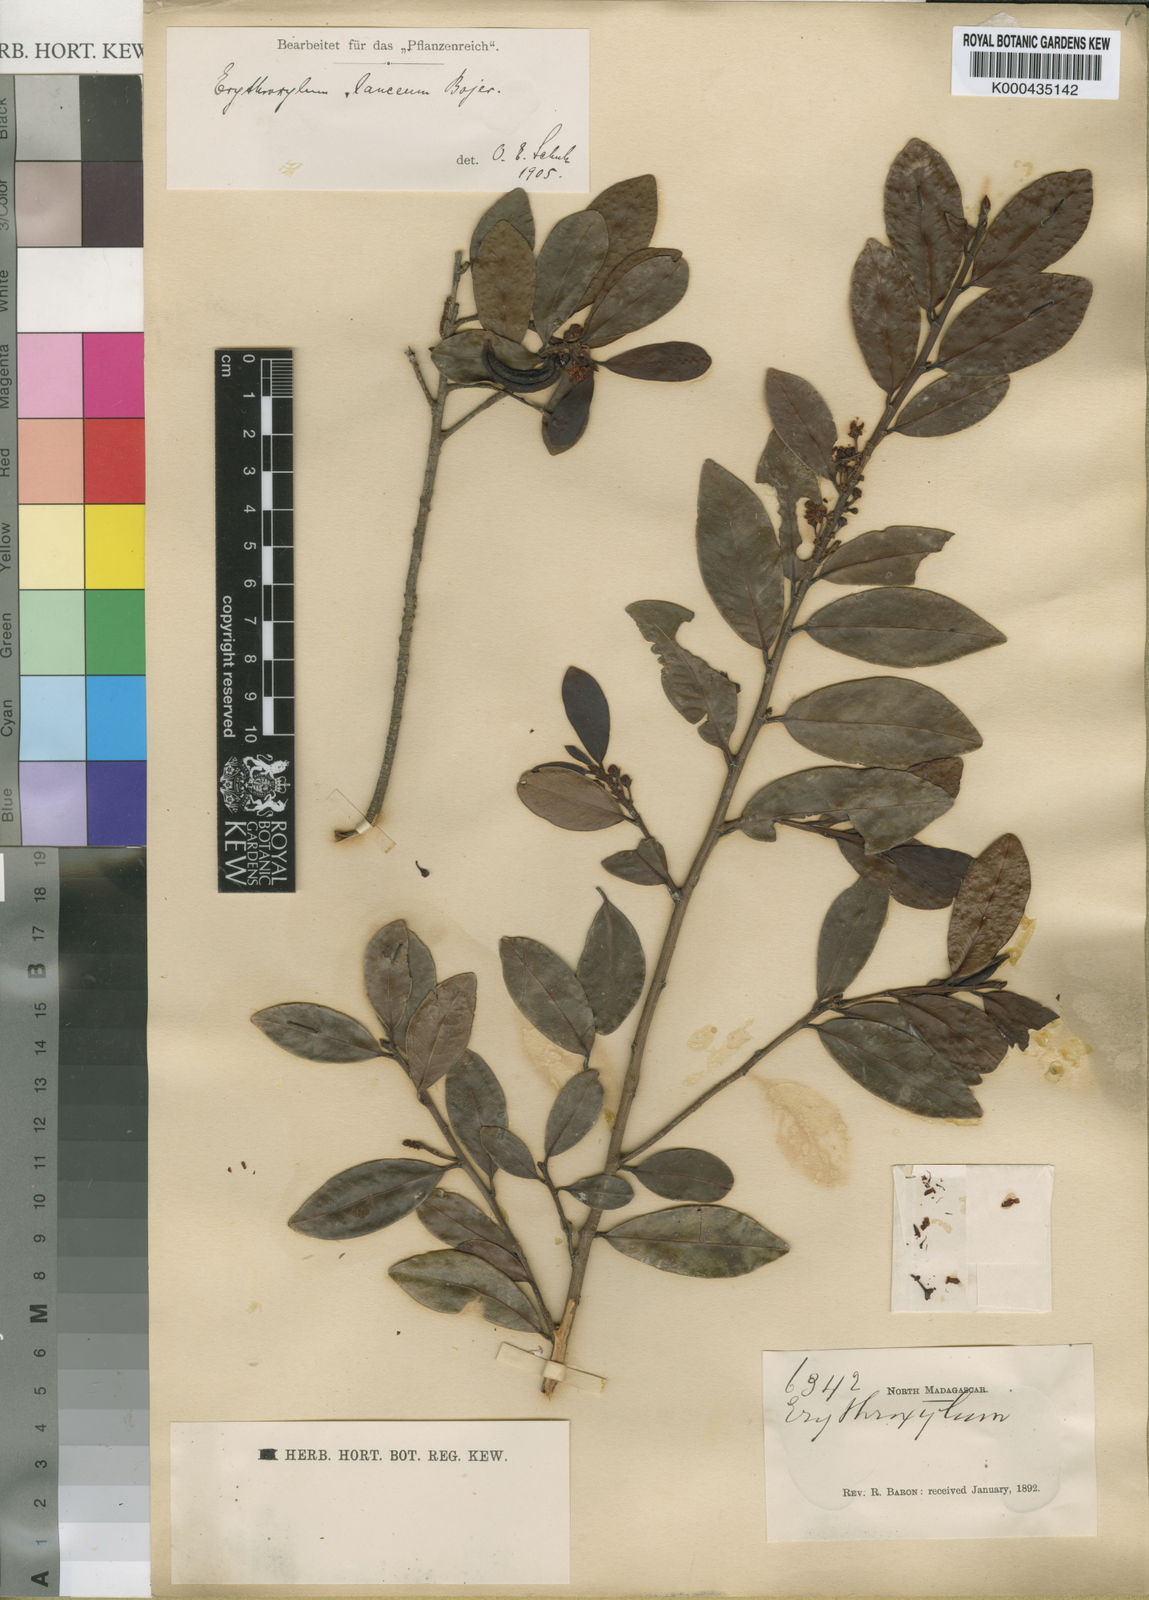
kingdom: Plantae
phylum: Tracheophyta
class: Magnoliopsida
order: Malpighiales
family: Erythroxylaceae
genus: Erythroxylum
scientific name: Erythroxylum lanceum
